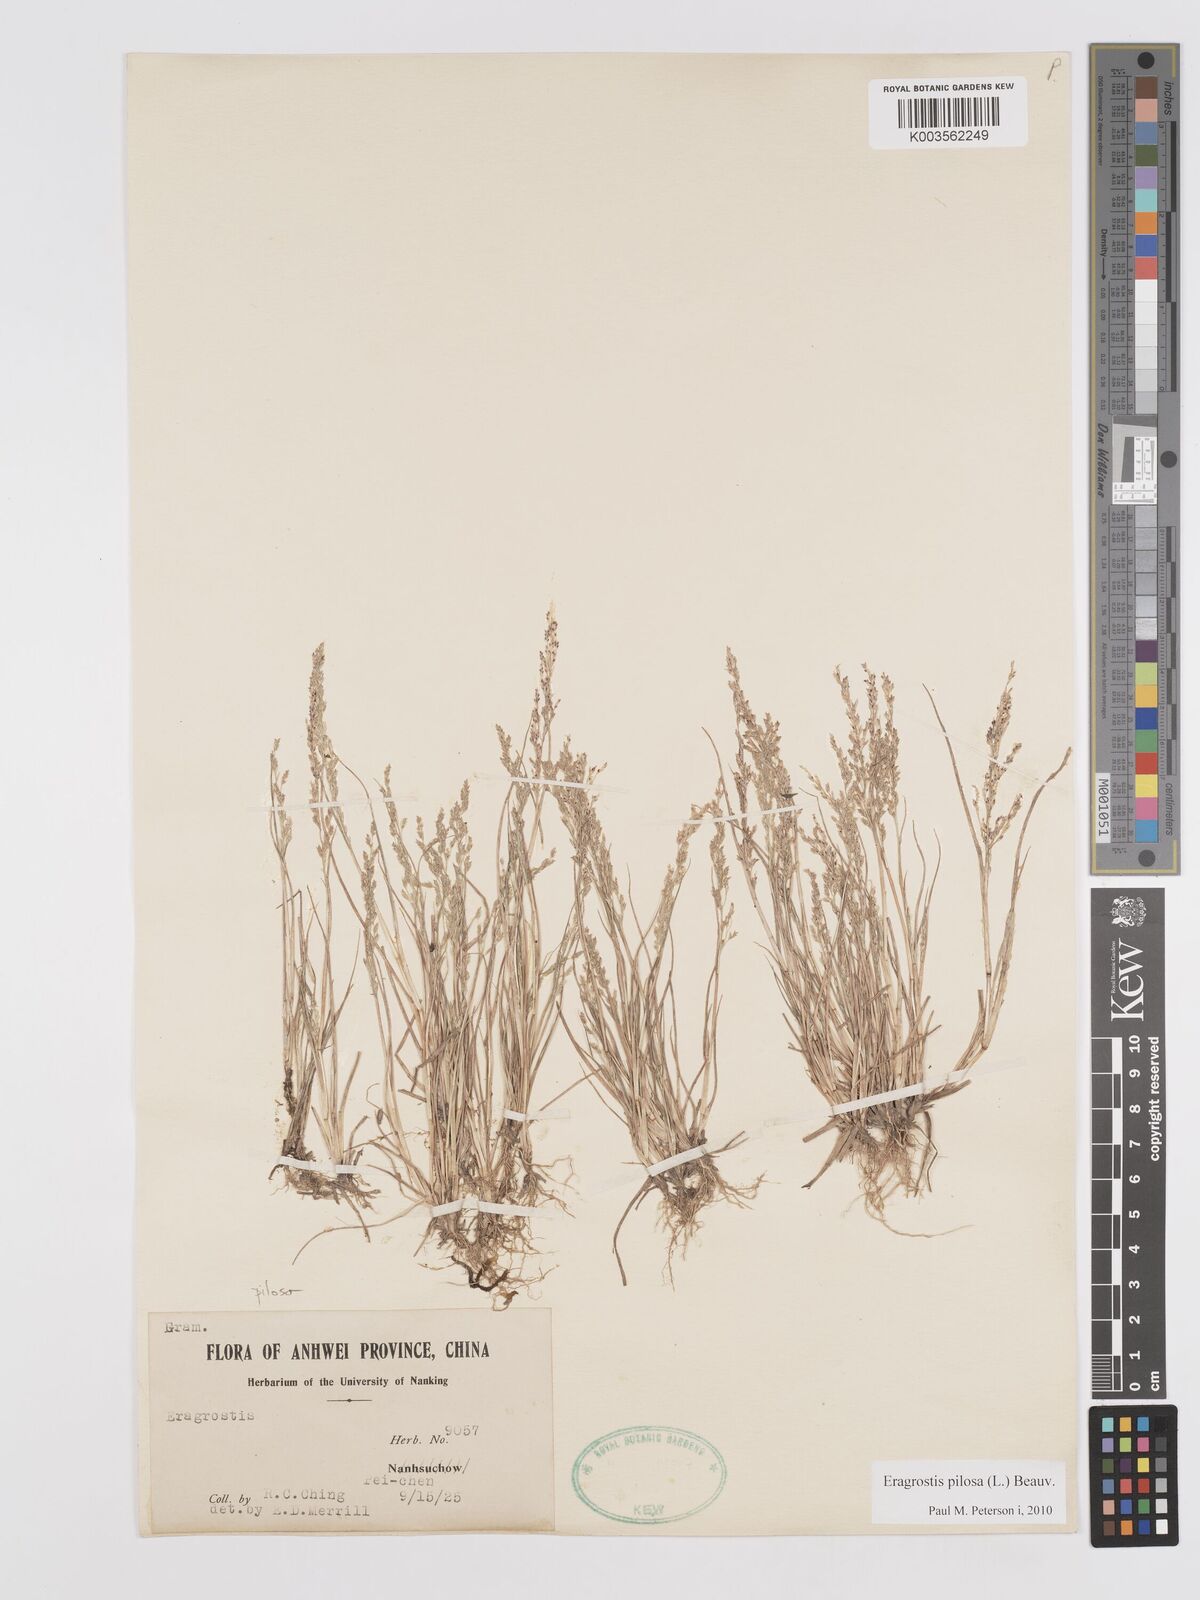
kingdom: Plantae
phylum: Tracheophyta
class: Liliopsida
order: Poales
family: Poaceae
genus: Eragrostis
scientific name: Eragrostis pilosa
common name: Indian lovegrass
